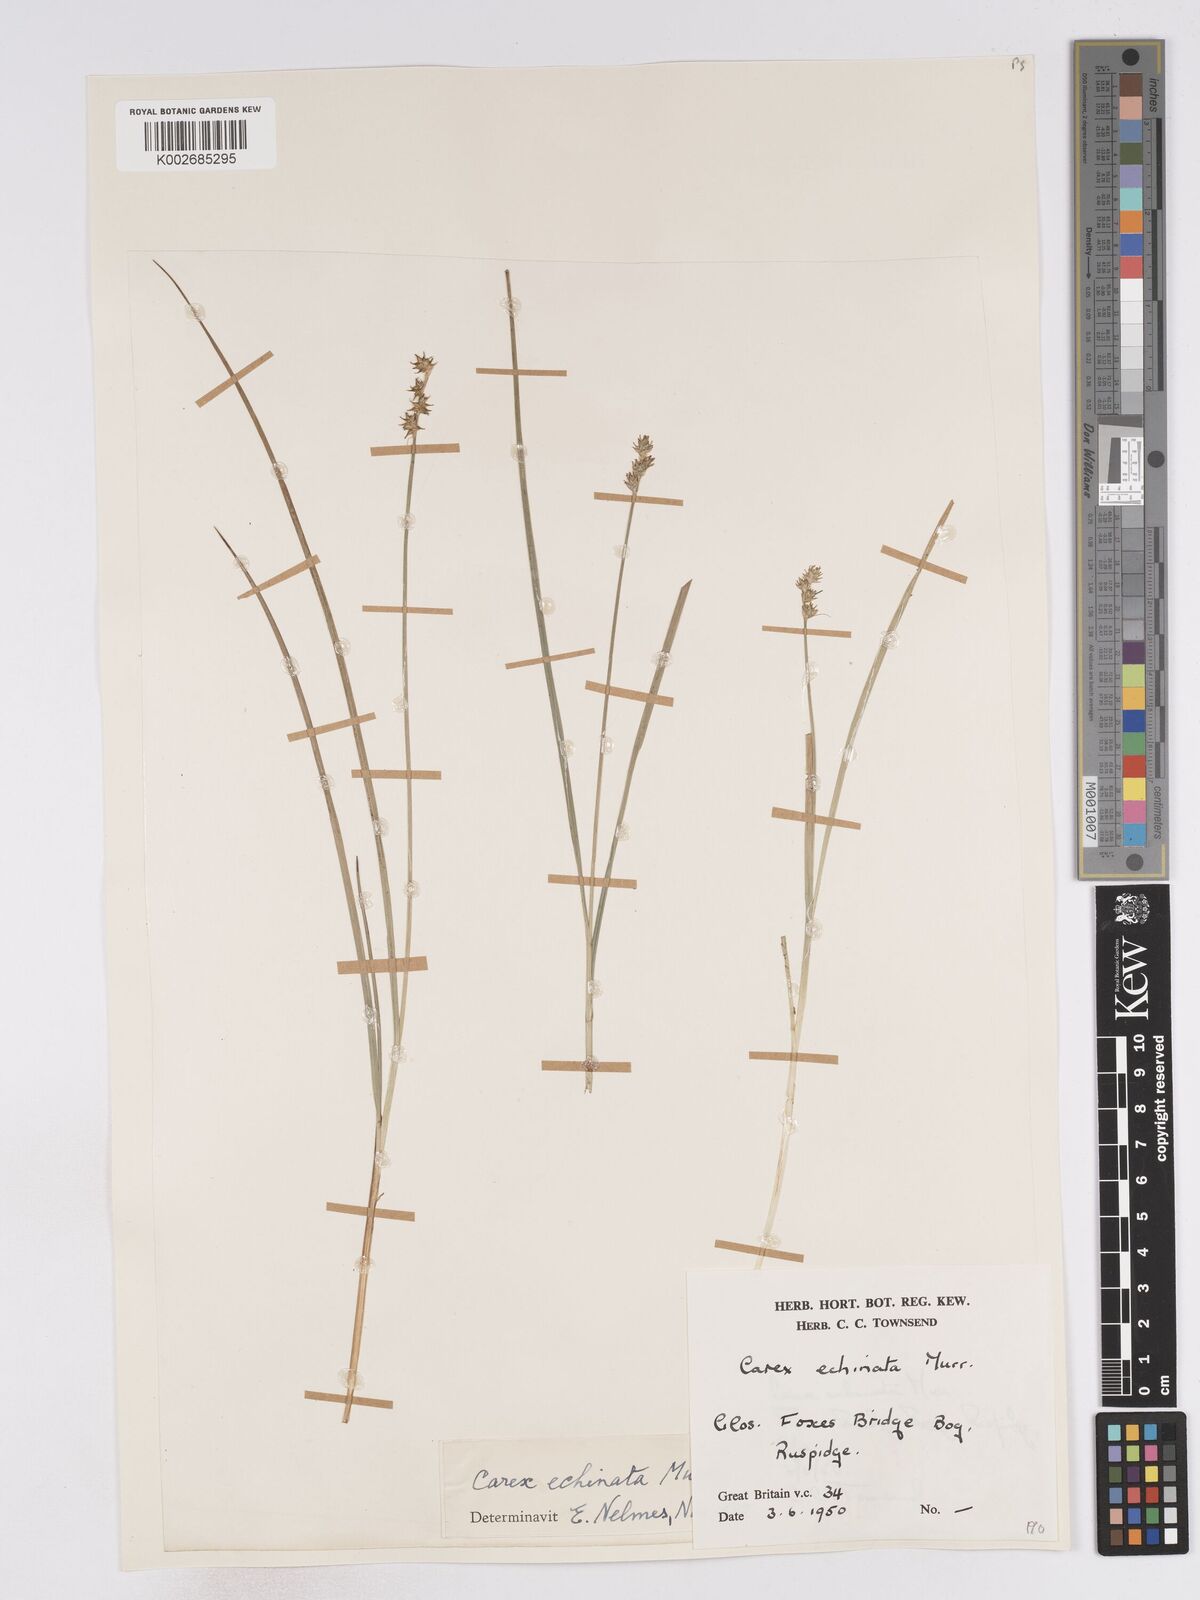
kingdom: Plantae
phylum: Tracheophyta
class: Liliopsida
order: Poales
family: Cyperaceae
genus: Carex
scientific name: Carex echinata
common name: Star sedge
